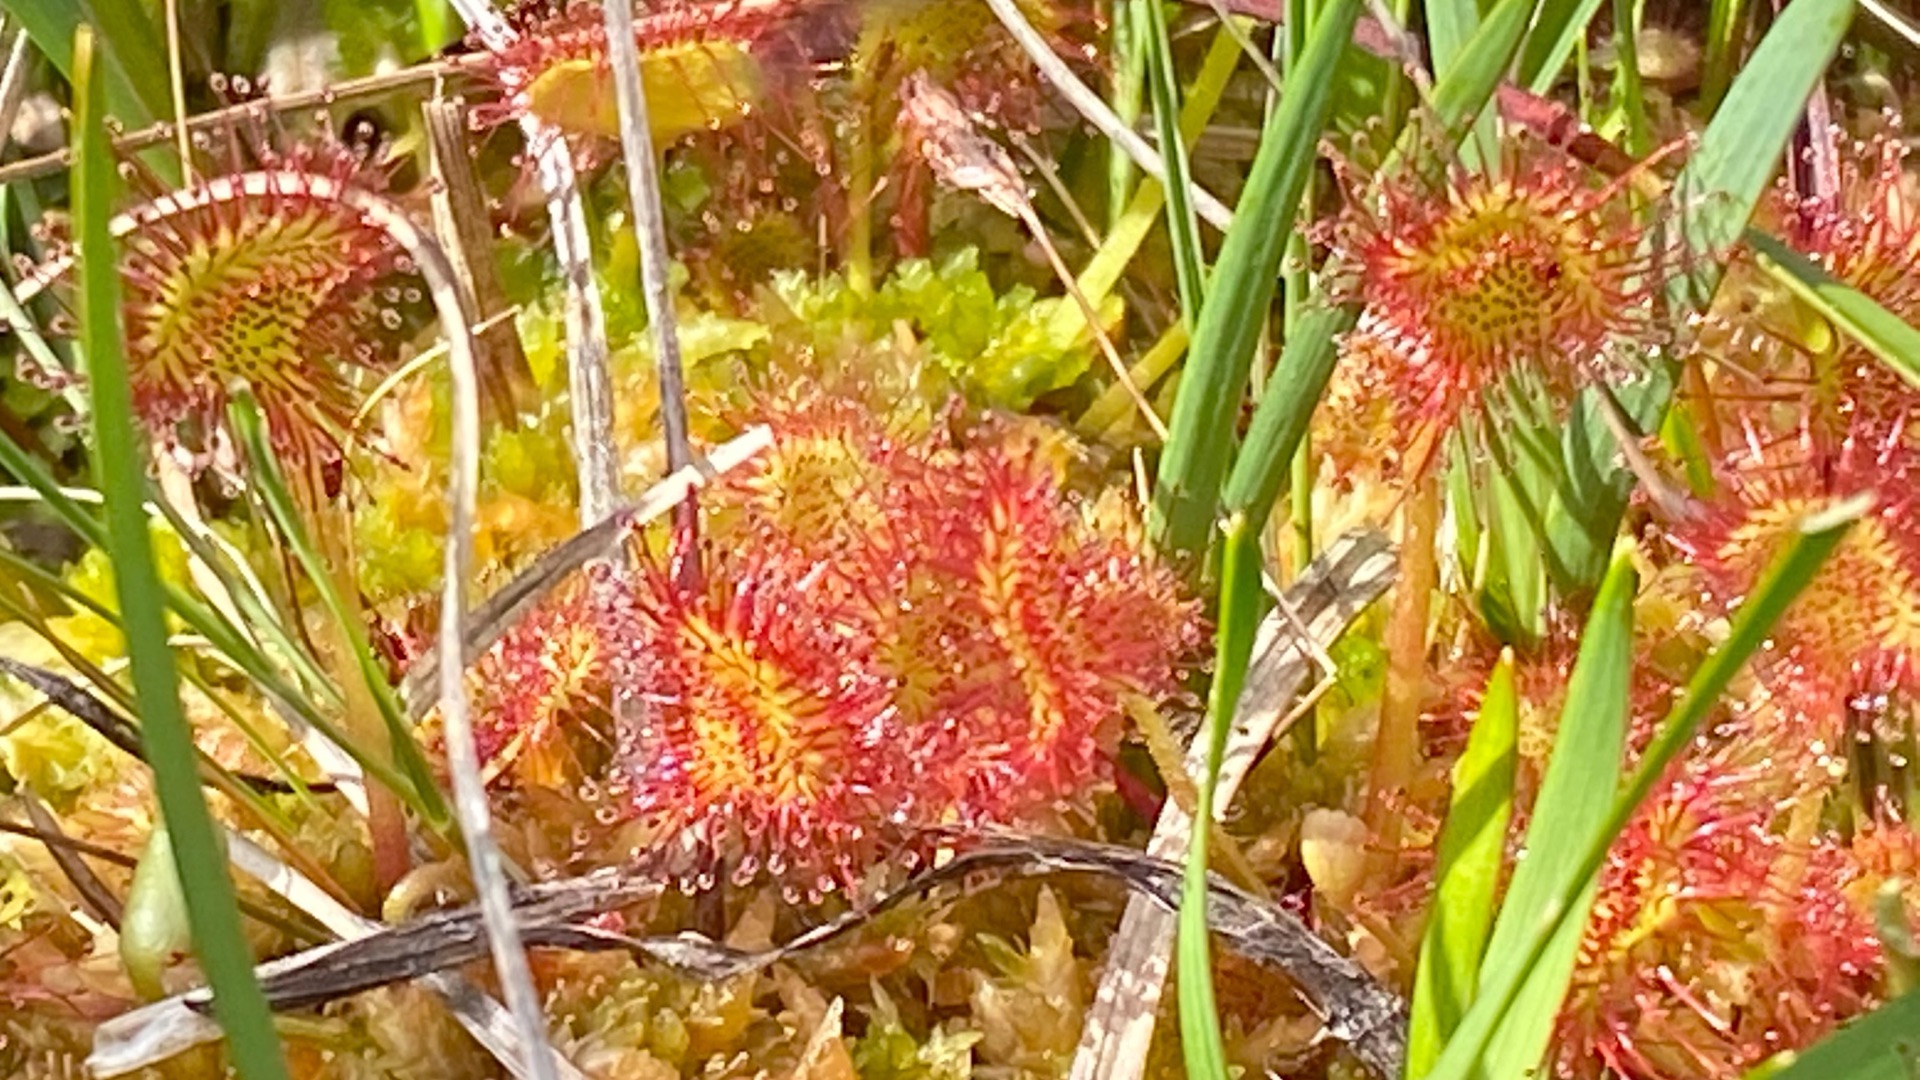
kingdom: Plantae
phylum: Tracheophyta
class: Magnoliopsida
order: Caryophyllales
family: Droseraceae
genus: Drosera
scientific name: Drosera rotundifolia
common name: Rundbladet soldug
